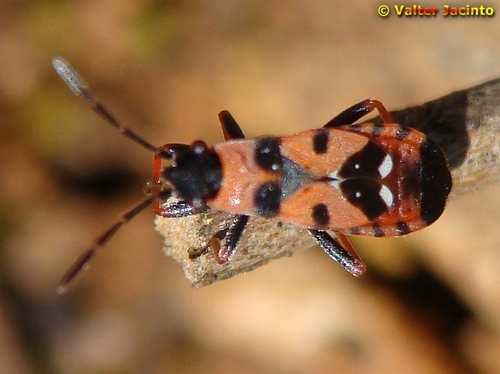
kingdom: Animalia
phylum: Arthropoda
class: Insecta
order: Hemiptera
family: Lygaeidae
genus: Horvathiolus
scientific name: Horvathiolus guttatus
